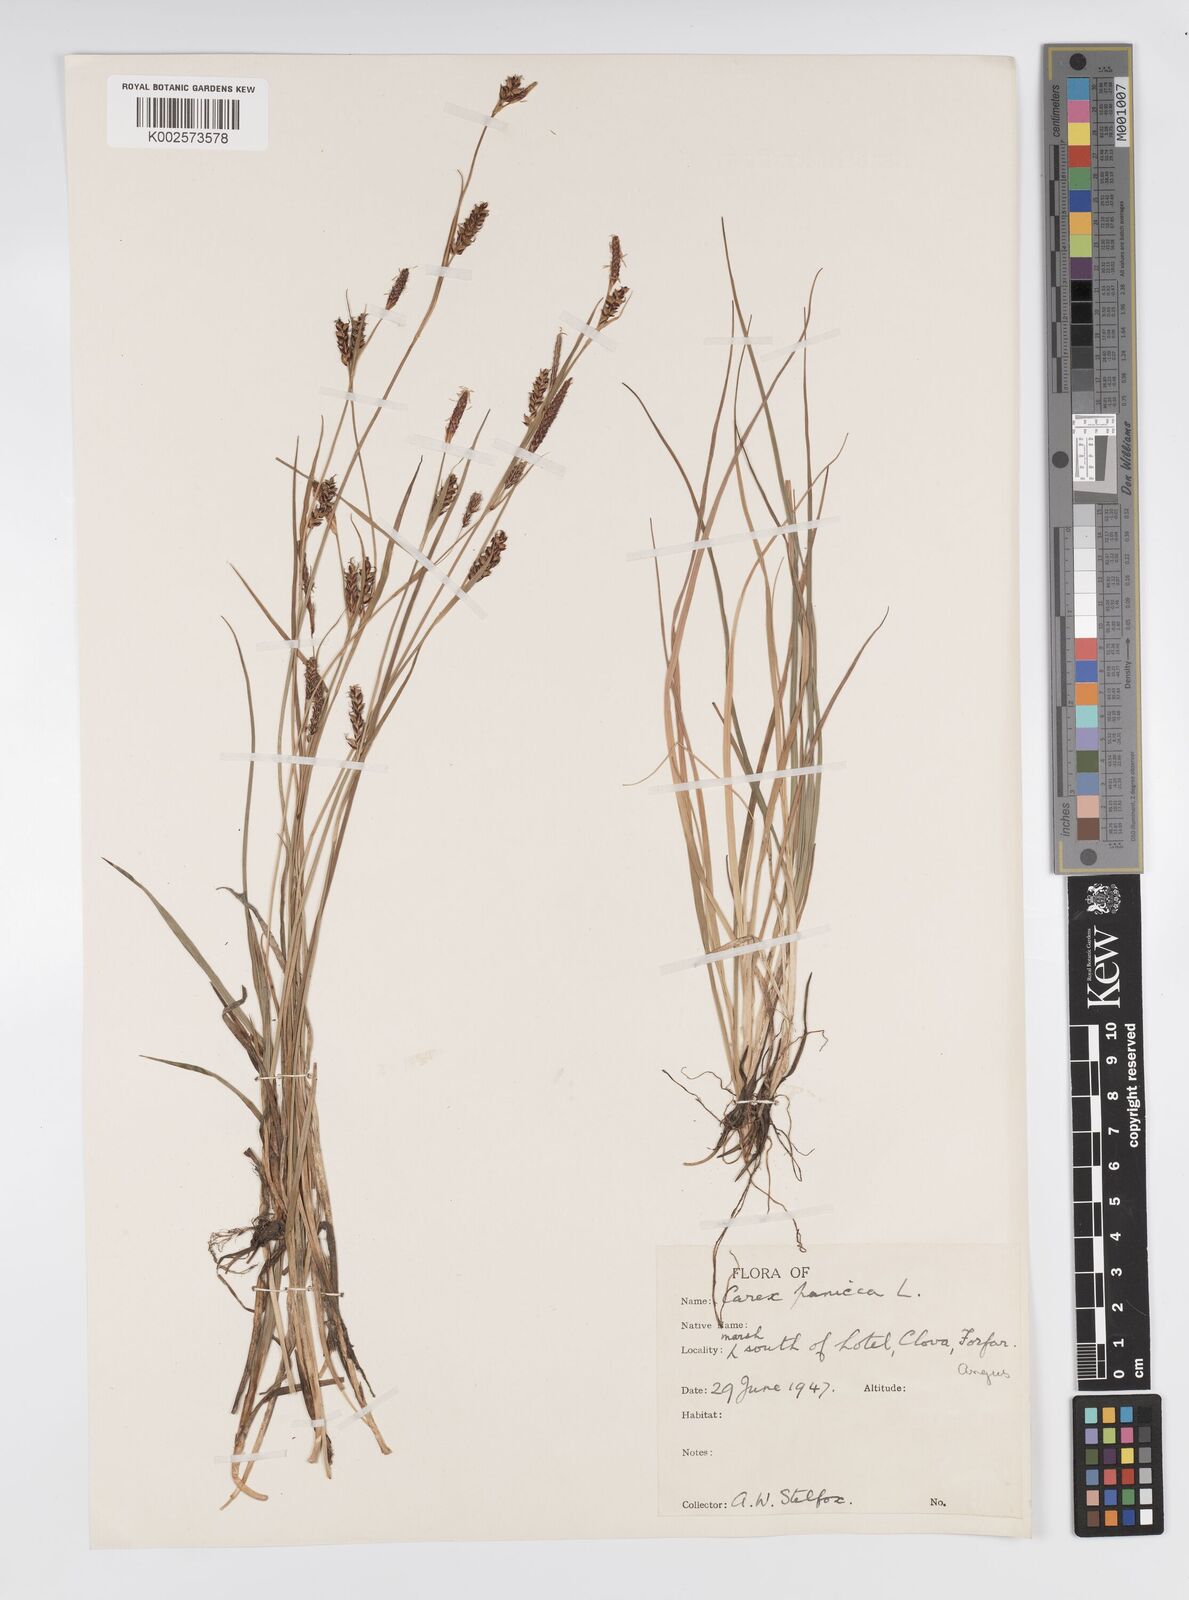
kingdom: Plantae
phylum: Tracheophyta
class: Liliopsida
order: Poales
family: Cyperaceae
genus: Carex
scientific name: Carex panicea
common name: Carnation sedge
